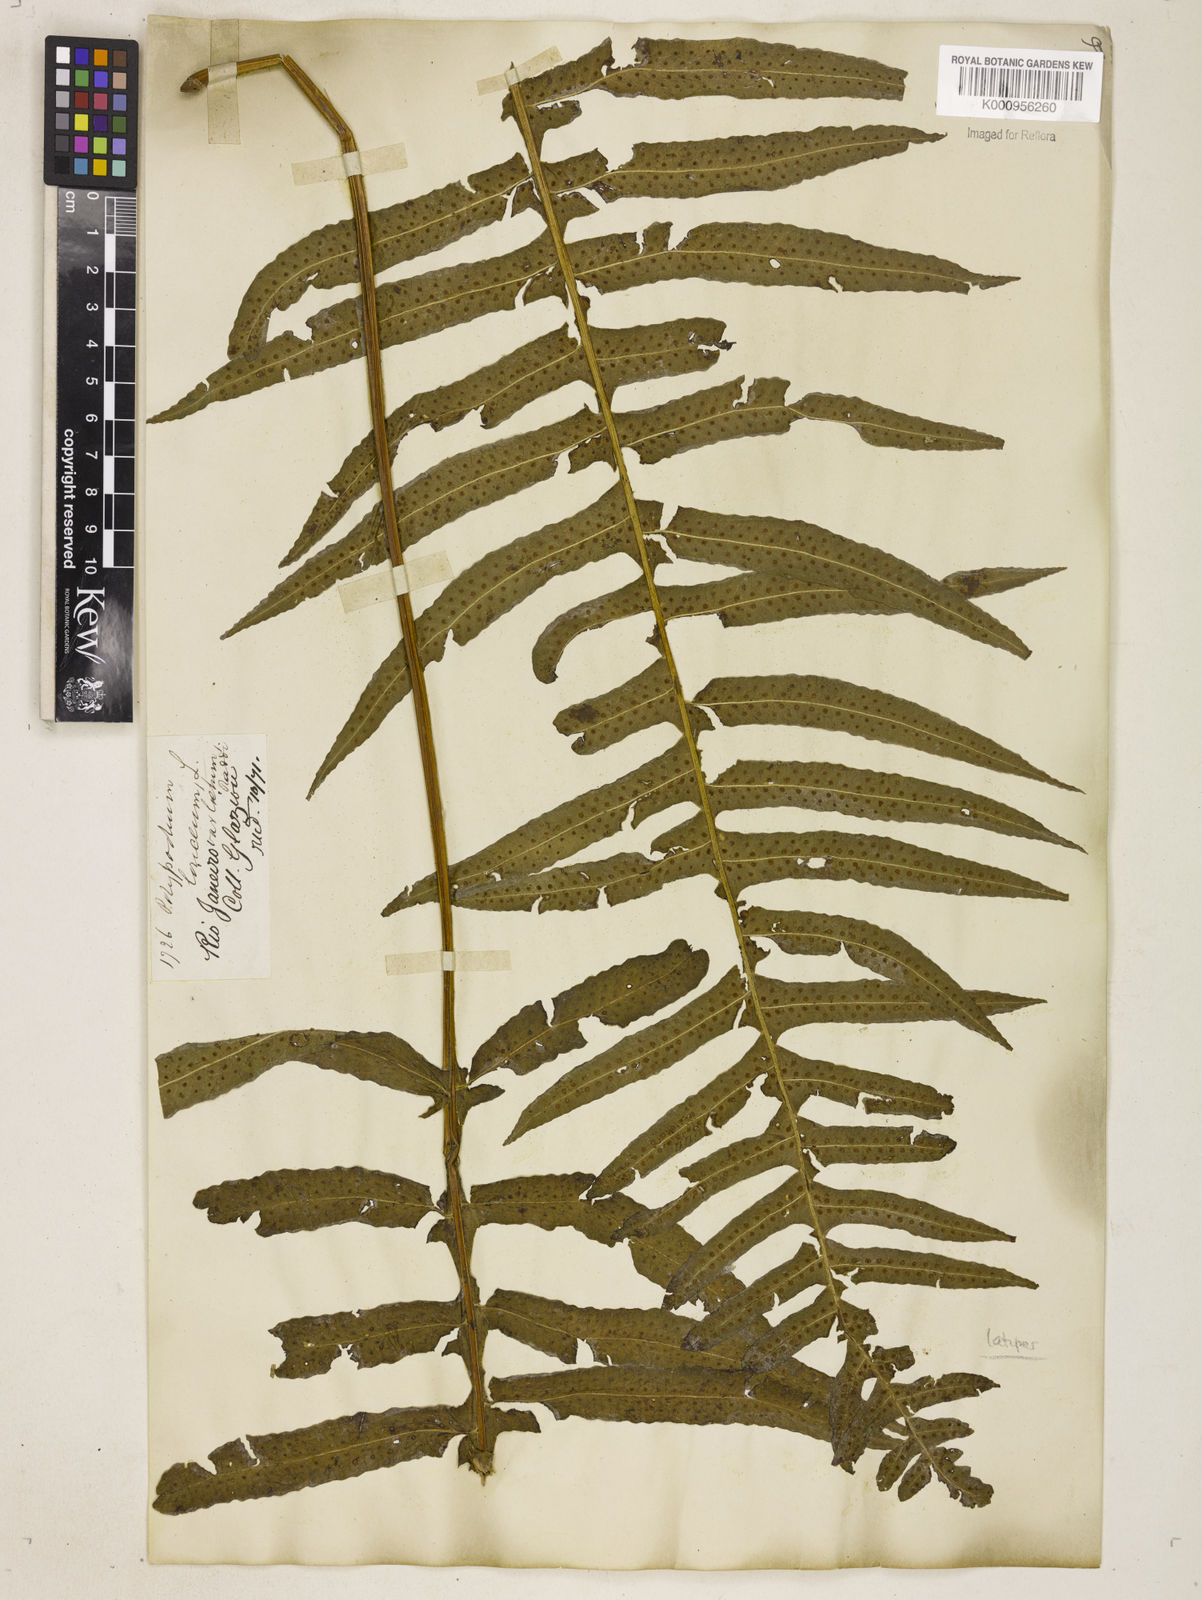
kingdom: Plantae
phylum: Tracheophyta
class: Polypodiopsida
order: Polypodiales
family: Polypodiaceae
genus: Serpocaulon
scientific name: Serpocaulon loriceum
